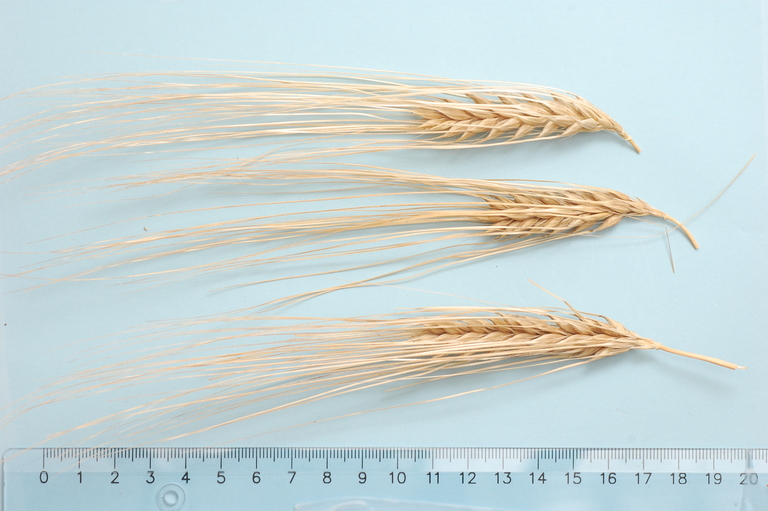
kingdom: Plantae
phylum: Tracheophyta
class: Liliopsida
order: Poales
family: Poaceae
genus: Hordeum
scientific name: Hordeum vulgare
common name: Common barley
